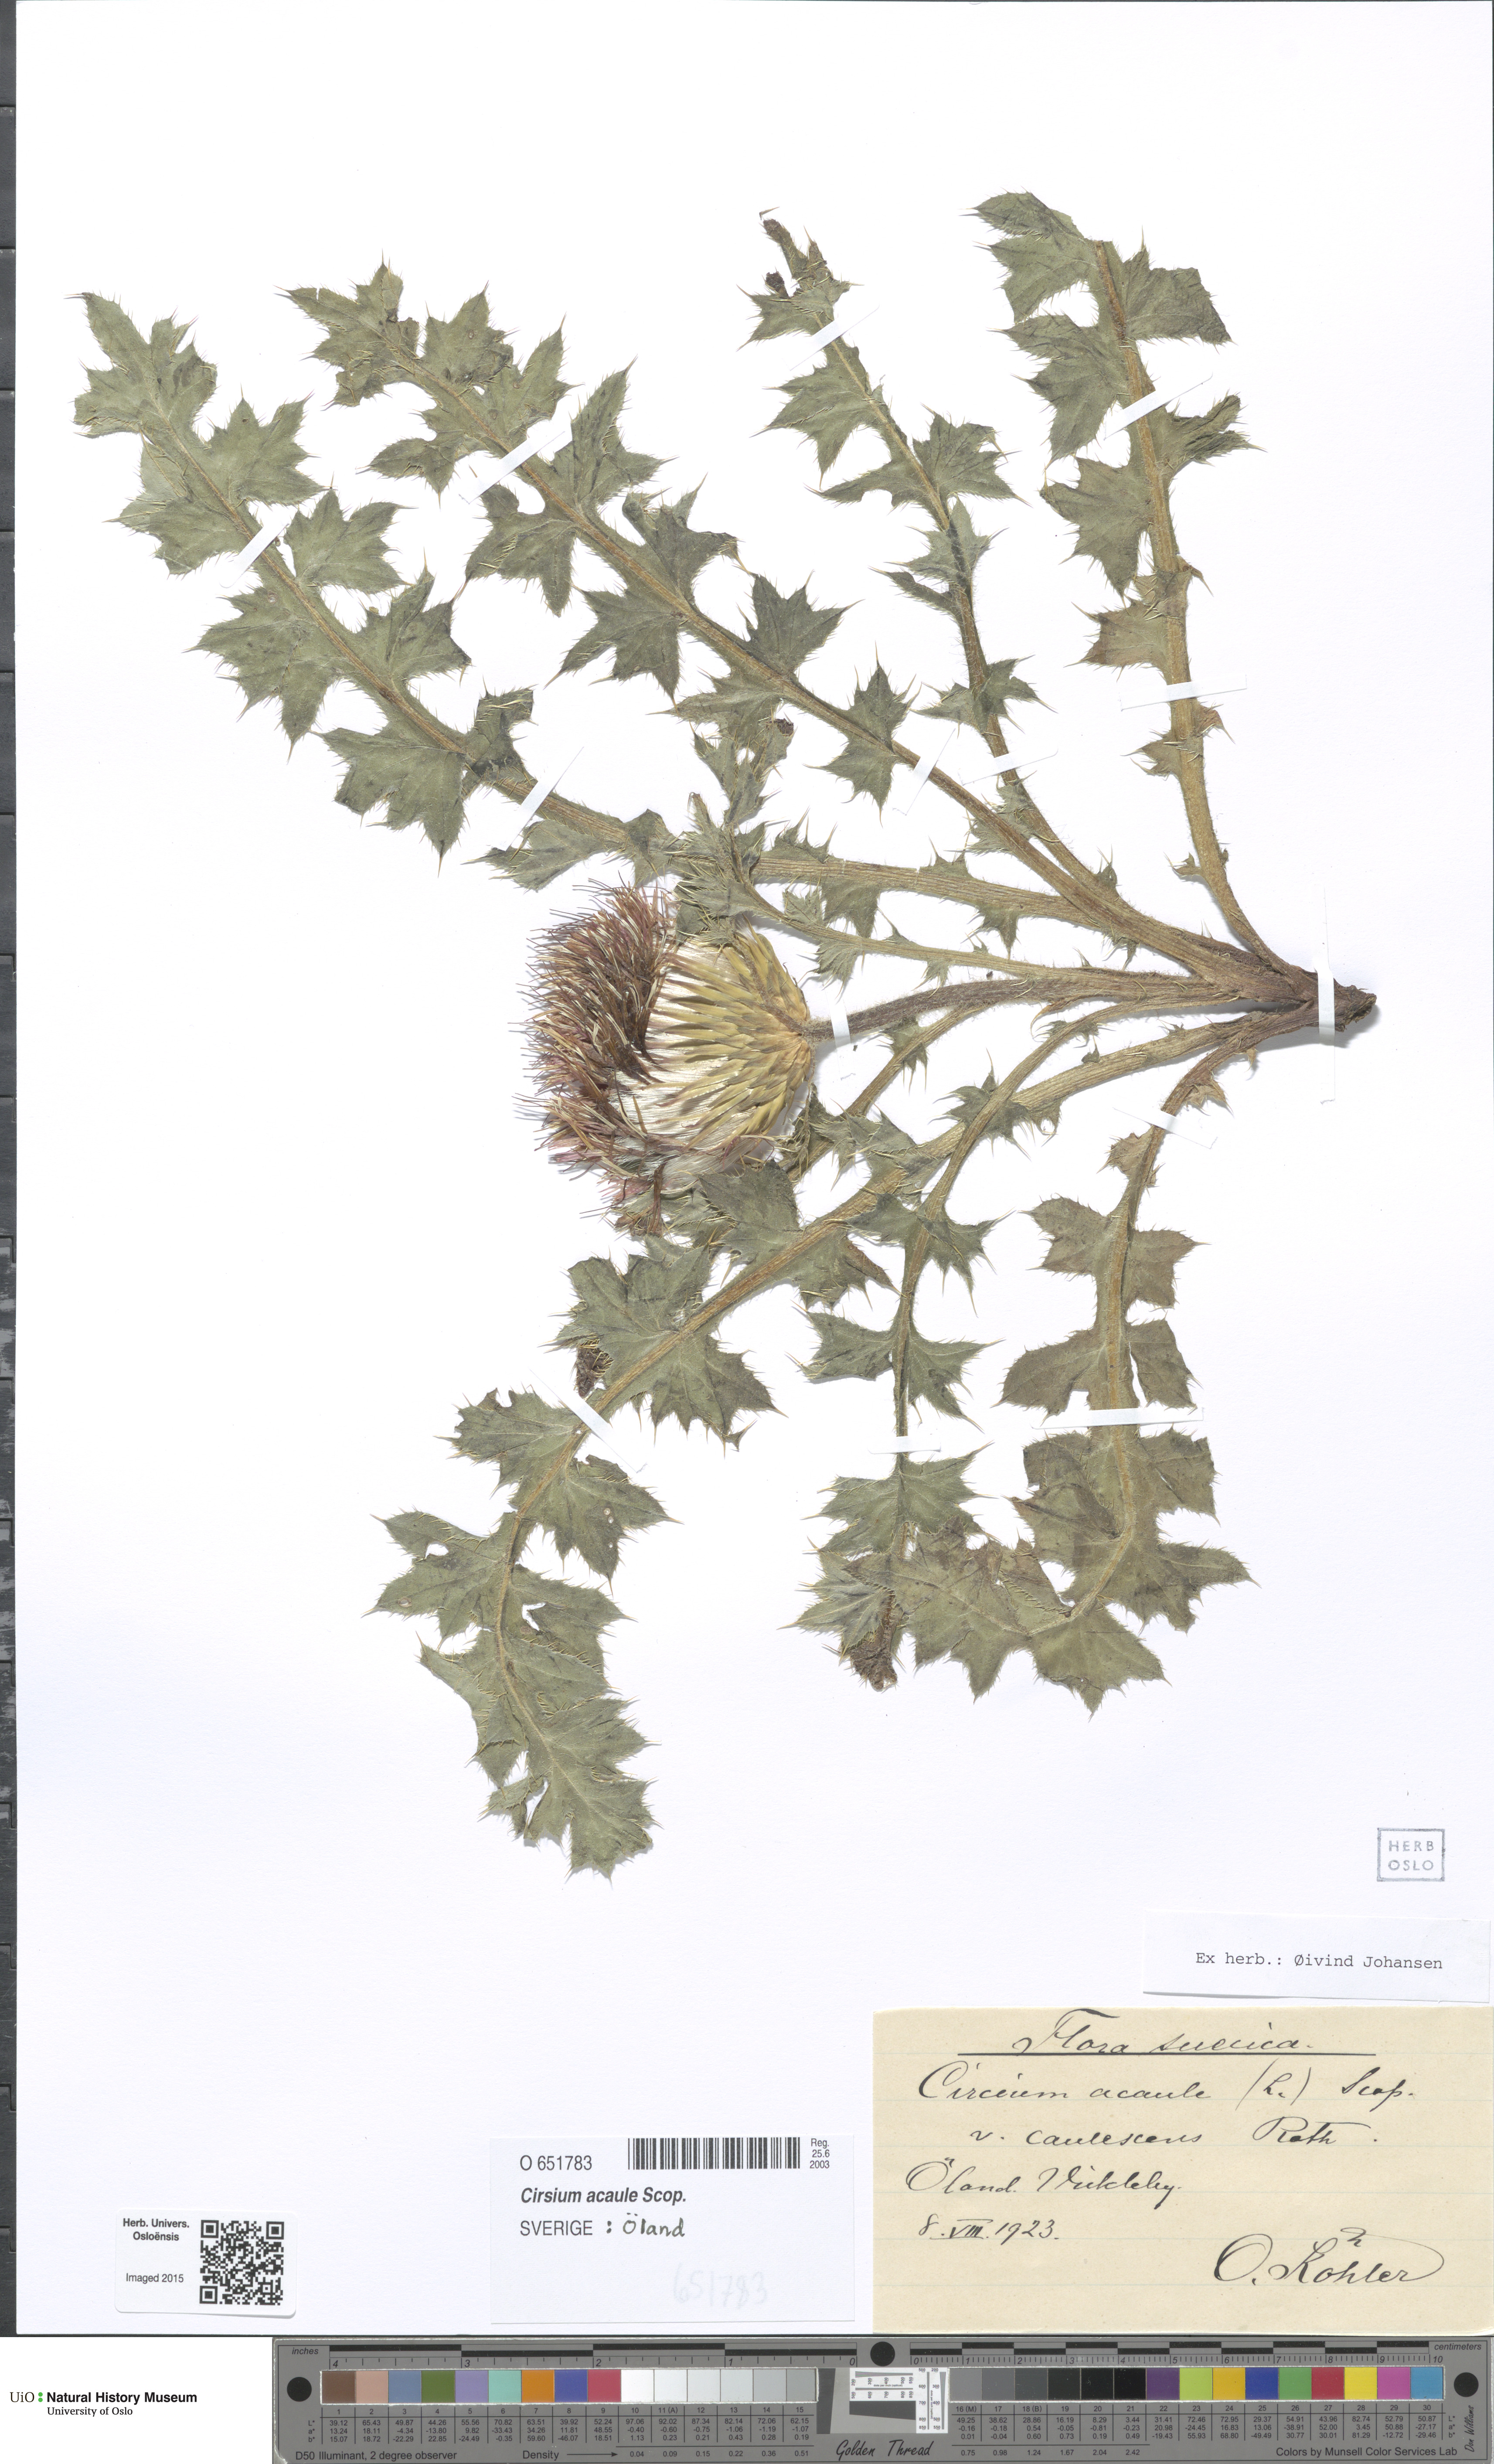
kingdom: Plantae
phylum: Tracheophyta
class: Magnoliopsida
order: Asterales
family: Asteraceae
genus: Cirsium
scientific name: Cirsium acaulon
